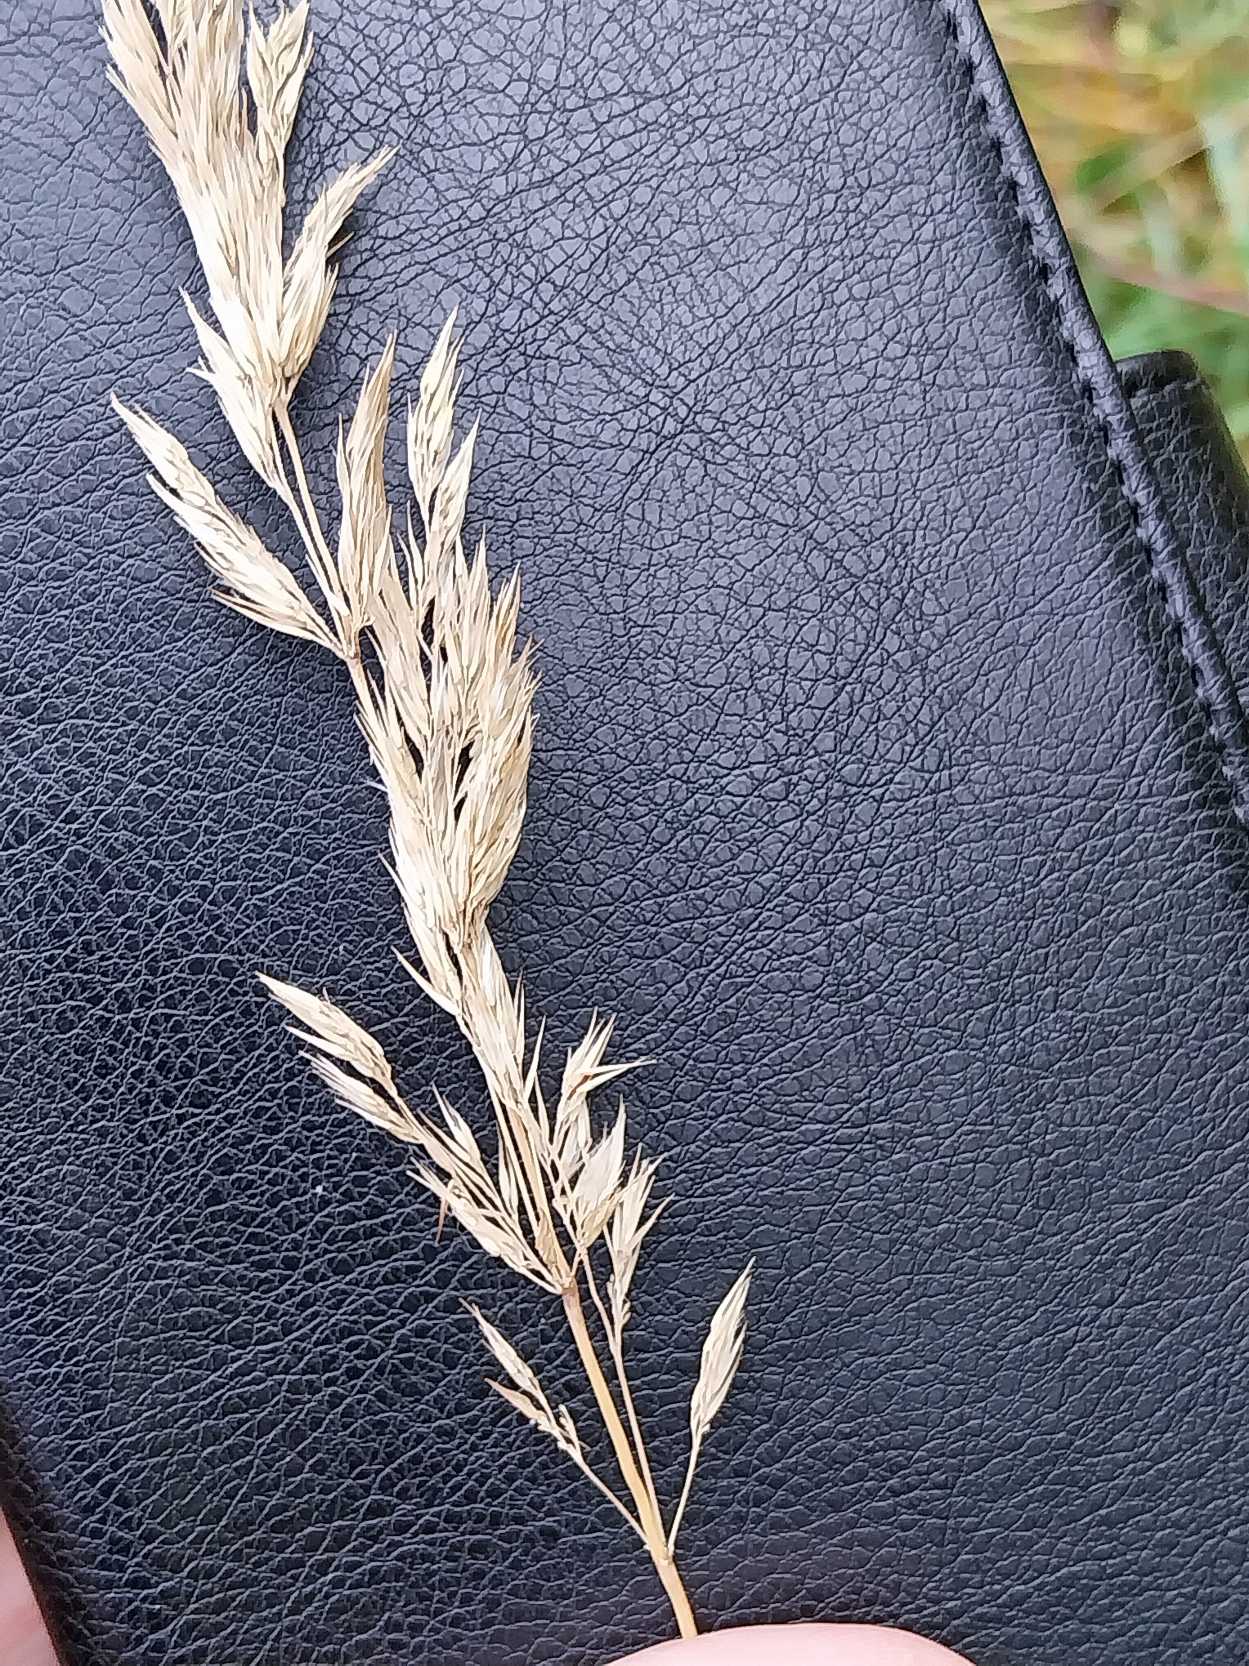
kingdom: Plantae
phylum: Tracheophyta
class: Liliopsida
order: Poales
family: Poaceae
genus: Dactylis
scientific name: Dactylis glomerata
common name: Almindelig hundegræs
